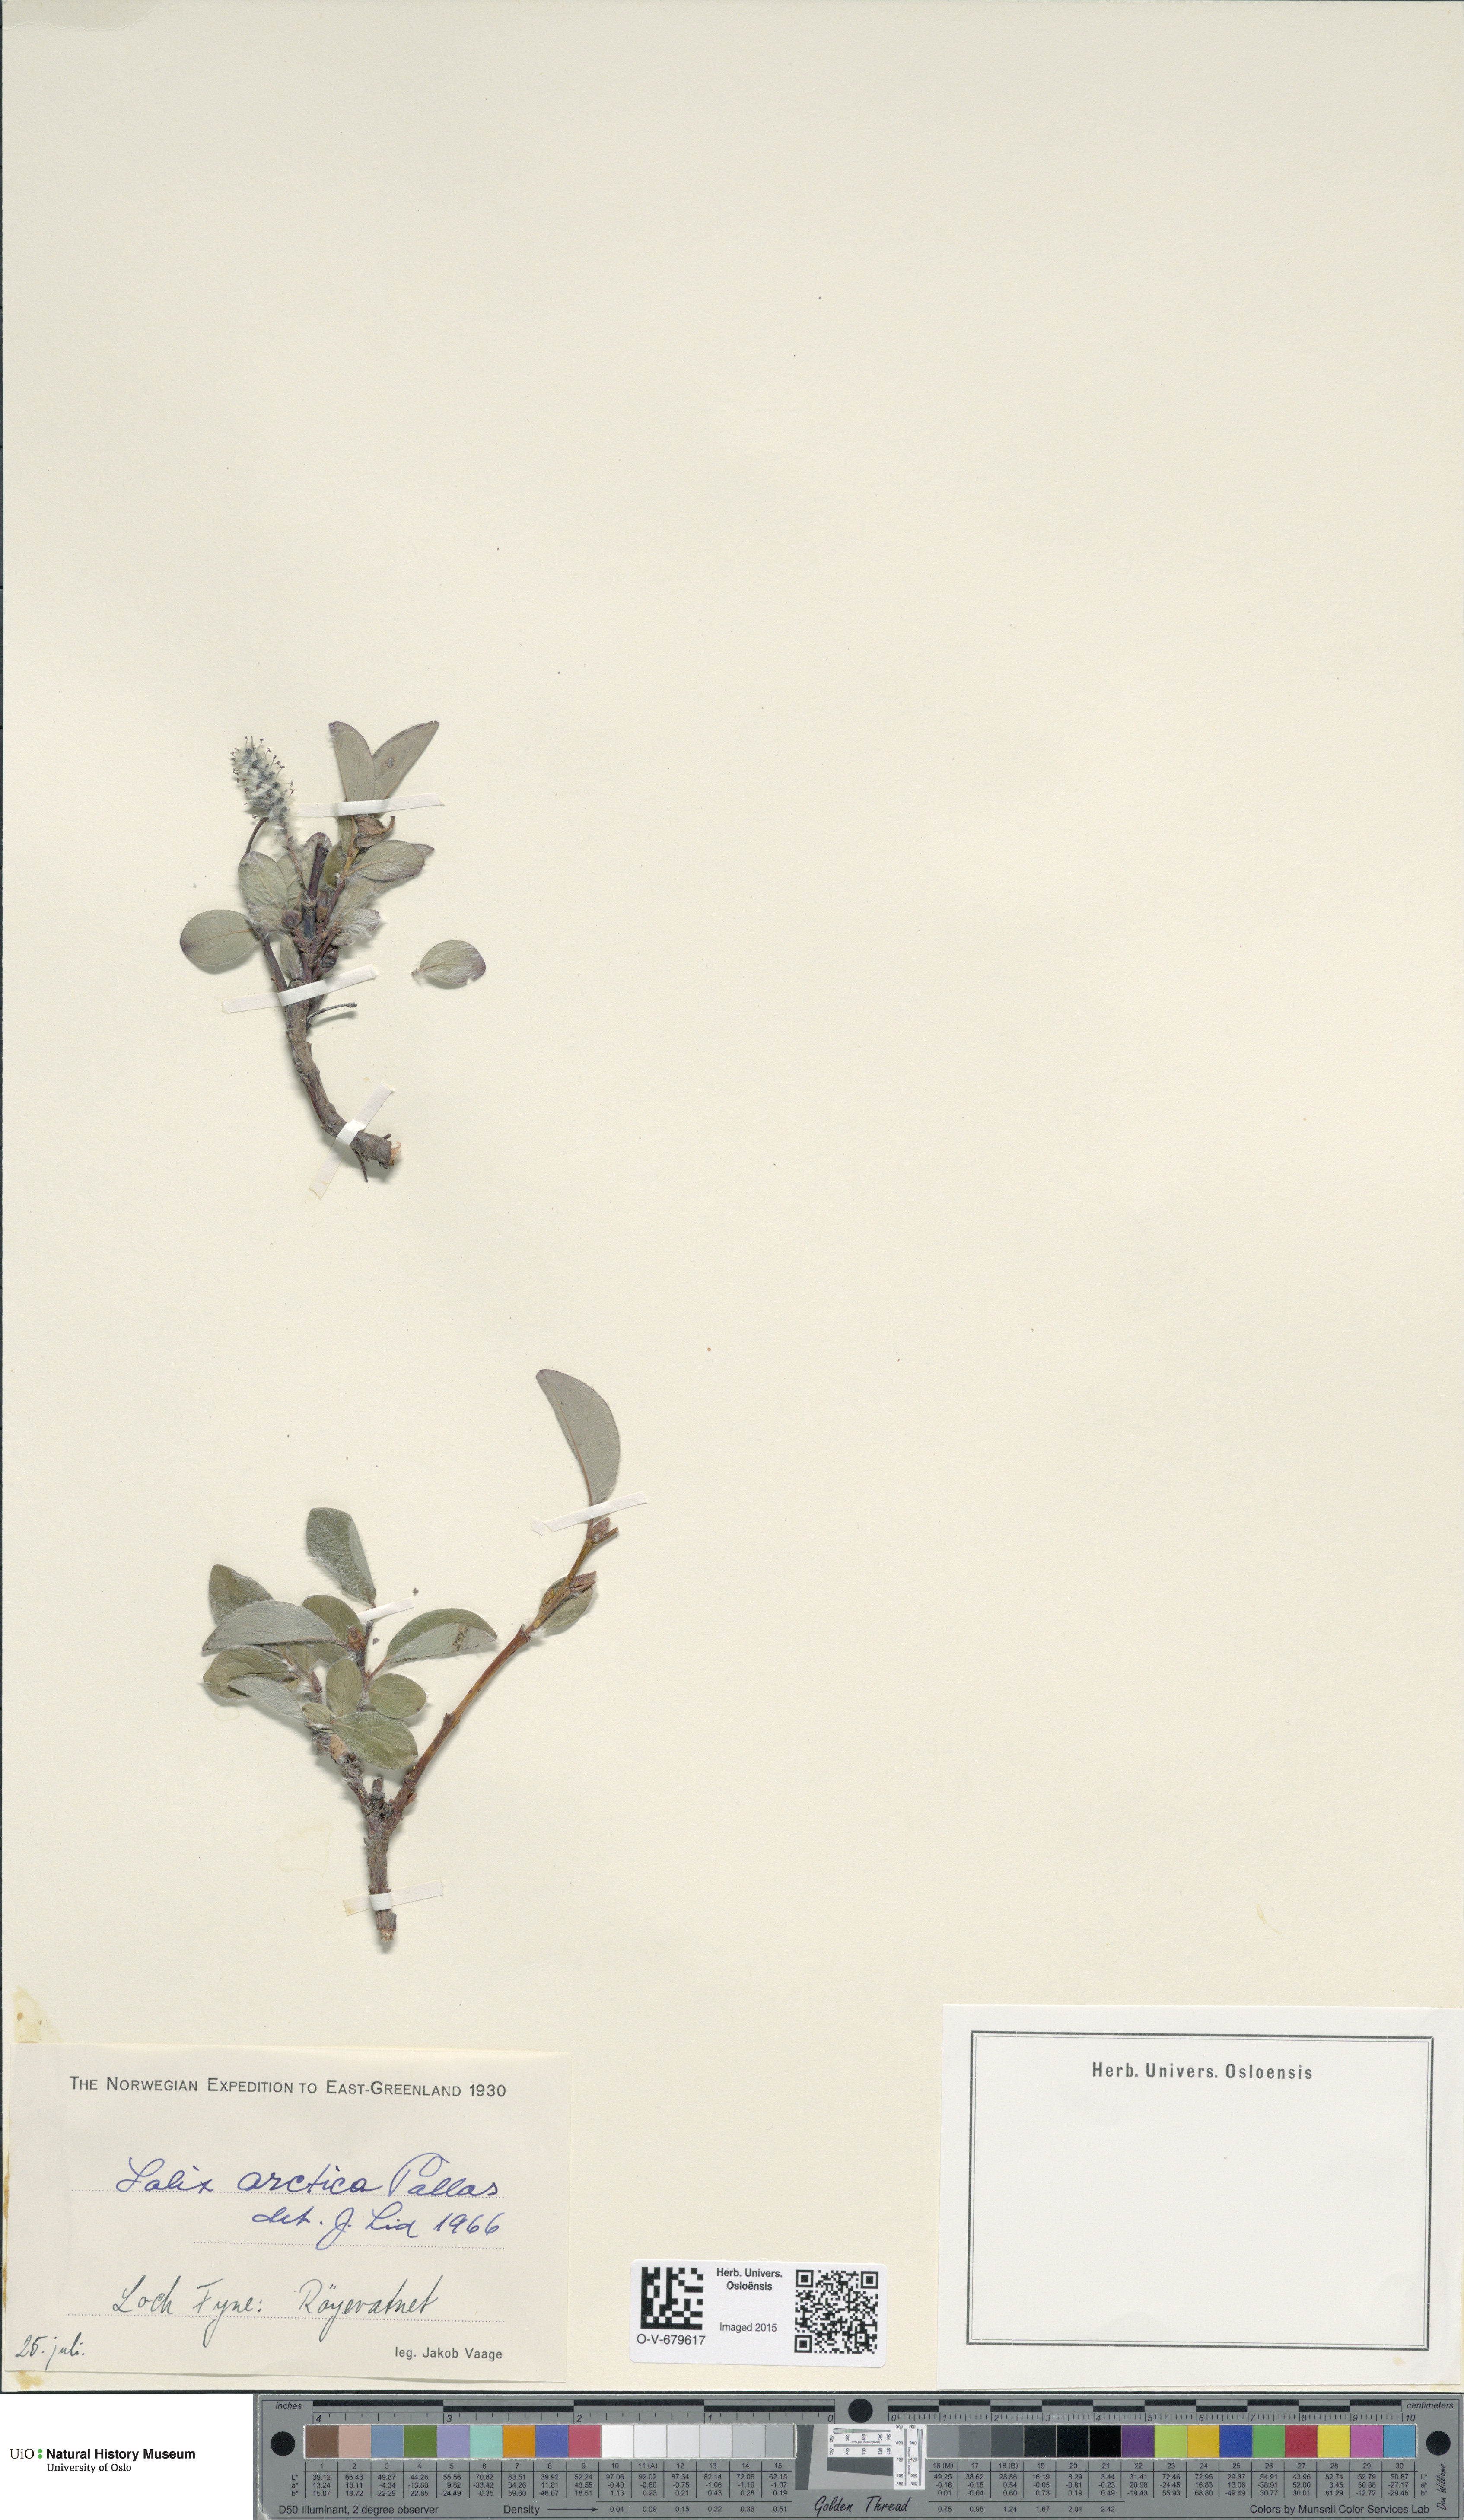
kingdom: Plantae
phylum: Tracheophyta
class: Magnoliopsida
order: Malpighiales
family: Salicaceae
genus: Salix
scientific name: Salix arctica
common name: Arctic willow
